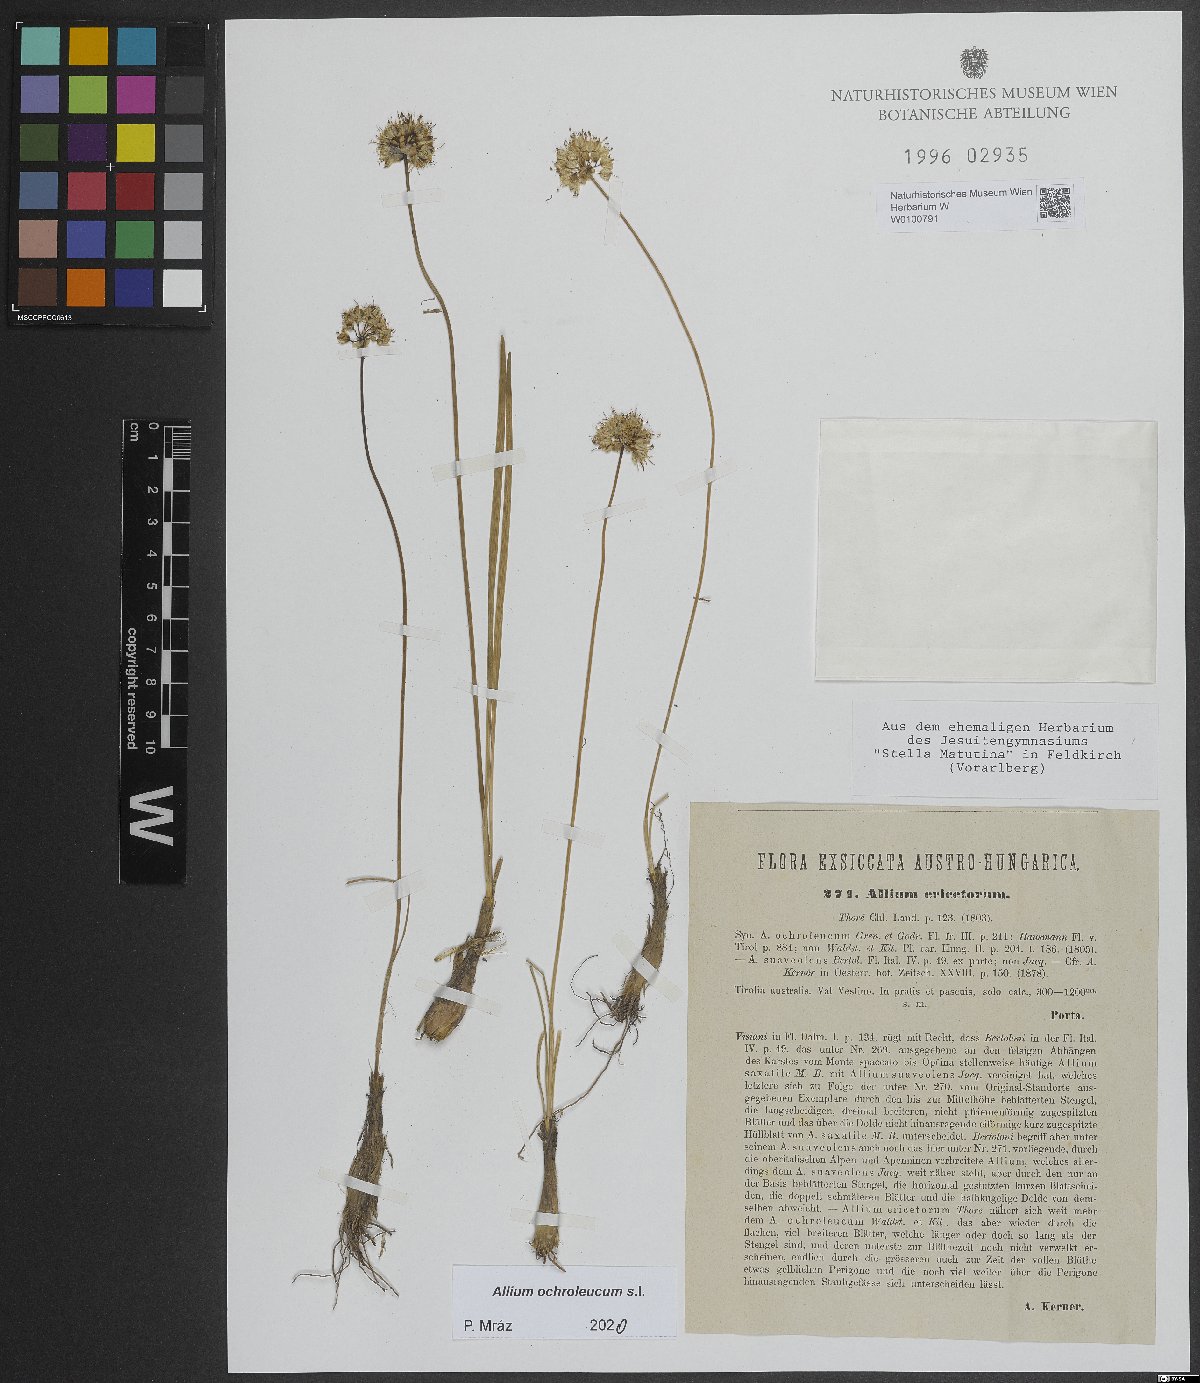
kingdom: Plantae
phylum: Tracheophyta
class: Liliopsida
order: Asparagales
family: Amaryllidaceae
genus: Allium
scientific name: Allium ericetorum
